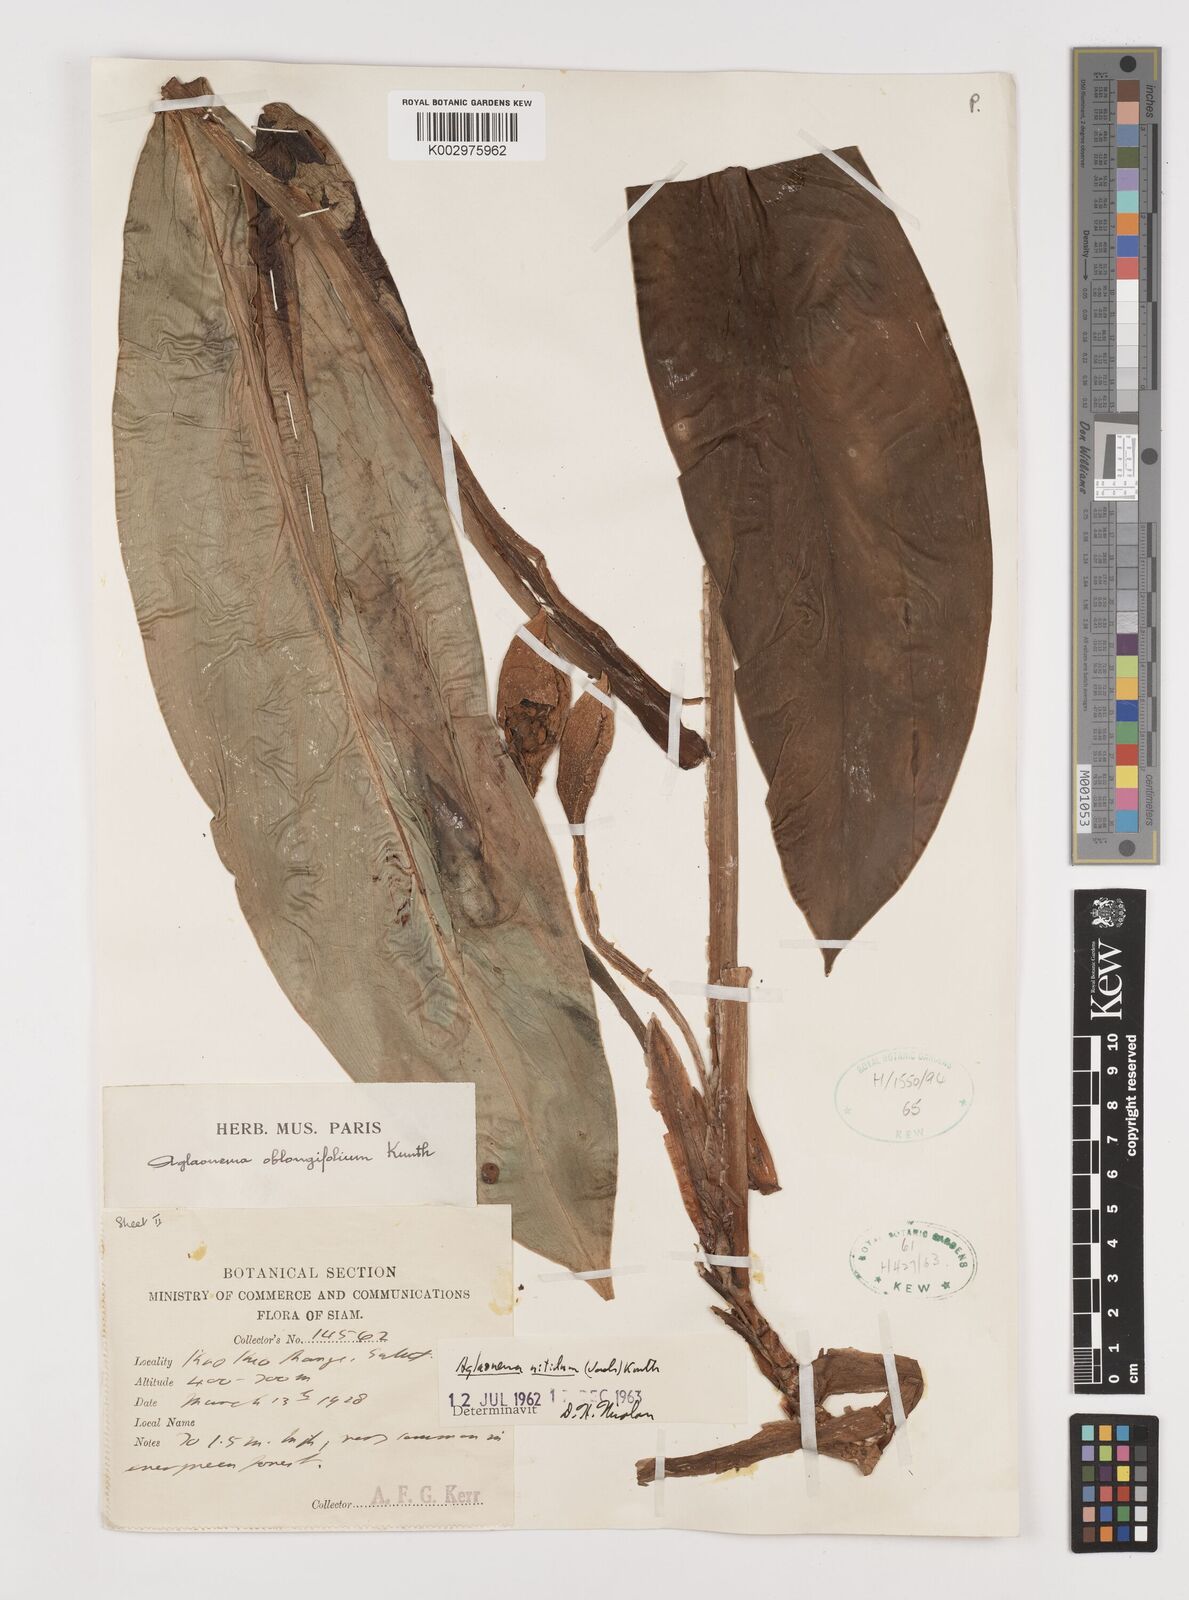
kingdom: Plantae
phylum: Tracheophyta
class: Liliopsida
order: Alismatales
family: Araceae
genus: Aglaonema
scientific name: Aglaonema nitidum
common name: Aglaonema aroid
